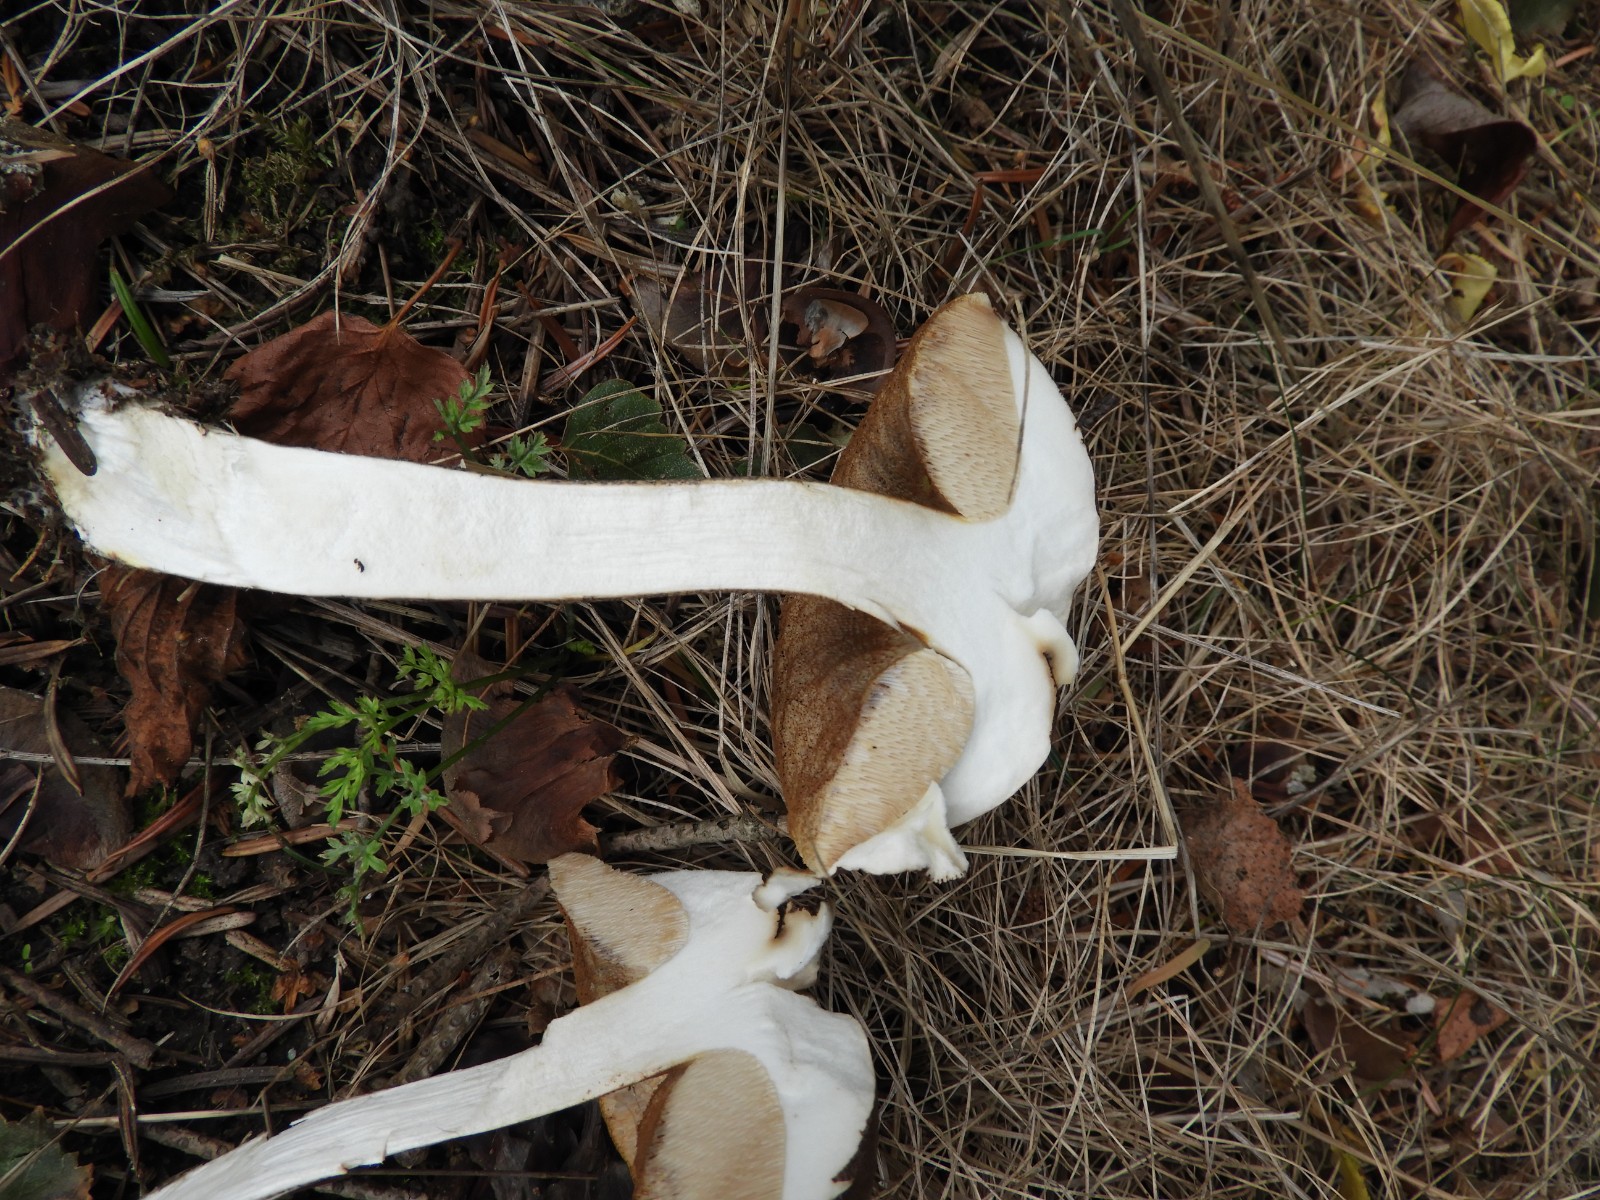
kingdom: Fungi
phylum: Basidiomycota
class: Agaricomycetes
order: Boletales
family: Boletaceae
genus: Leccinum
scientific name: Leccinum scabrum
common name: brun skælrørhat
